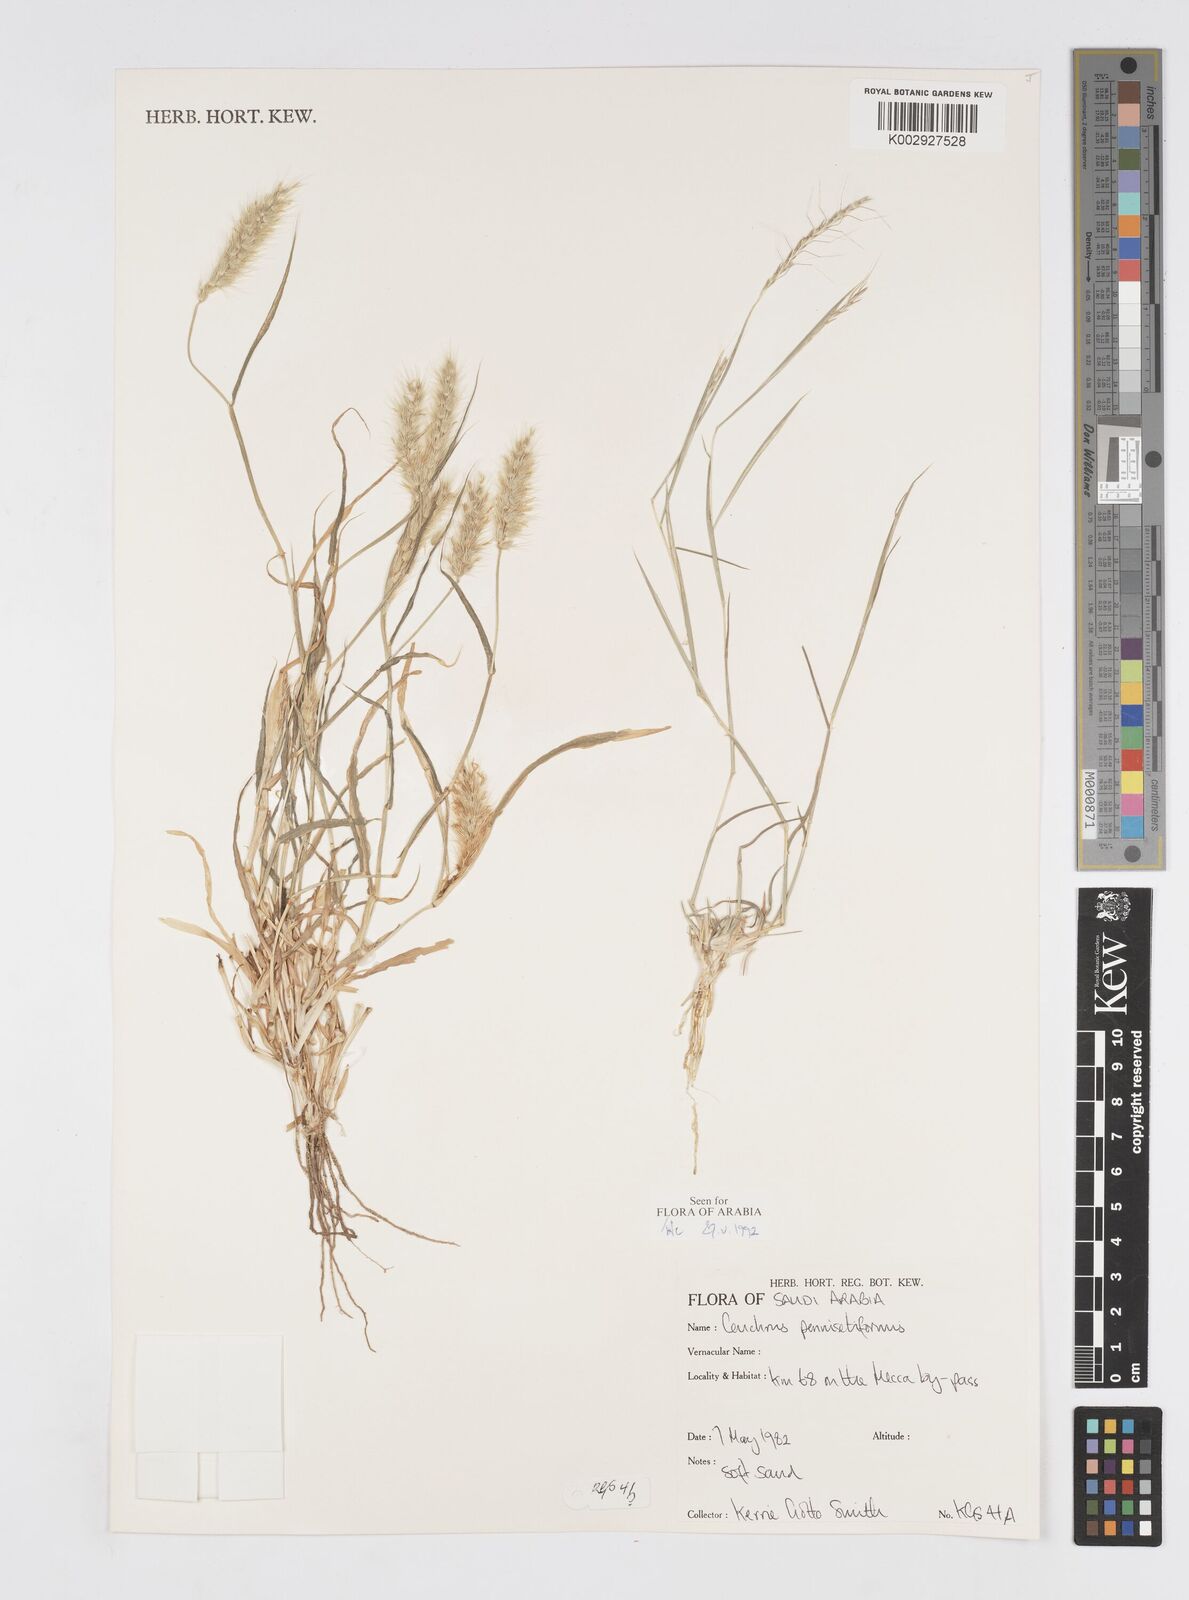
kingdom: Plantae
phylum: Tracheophyta
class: Liliopsida
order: Poales
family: Poaceae
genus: Cenchrus
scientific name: Cenchrus
